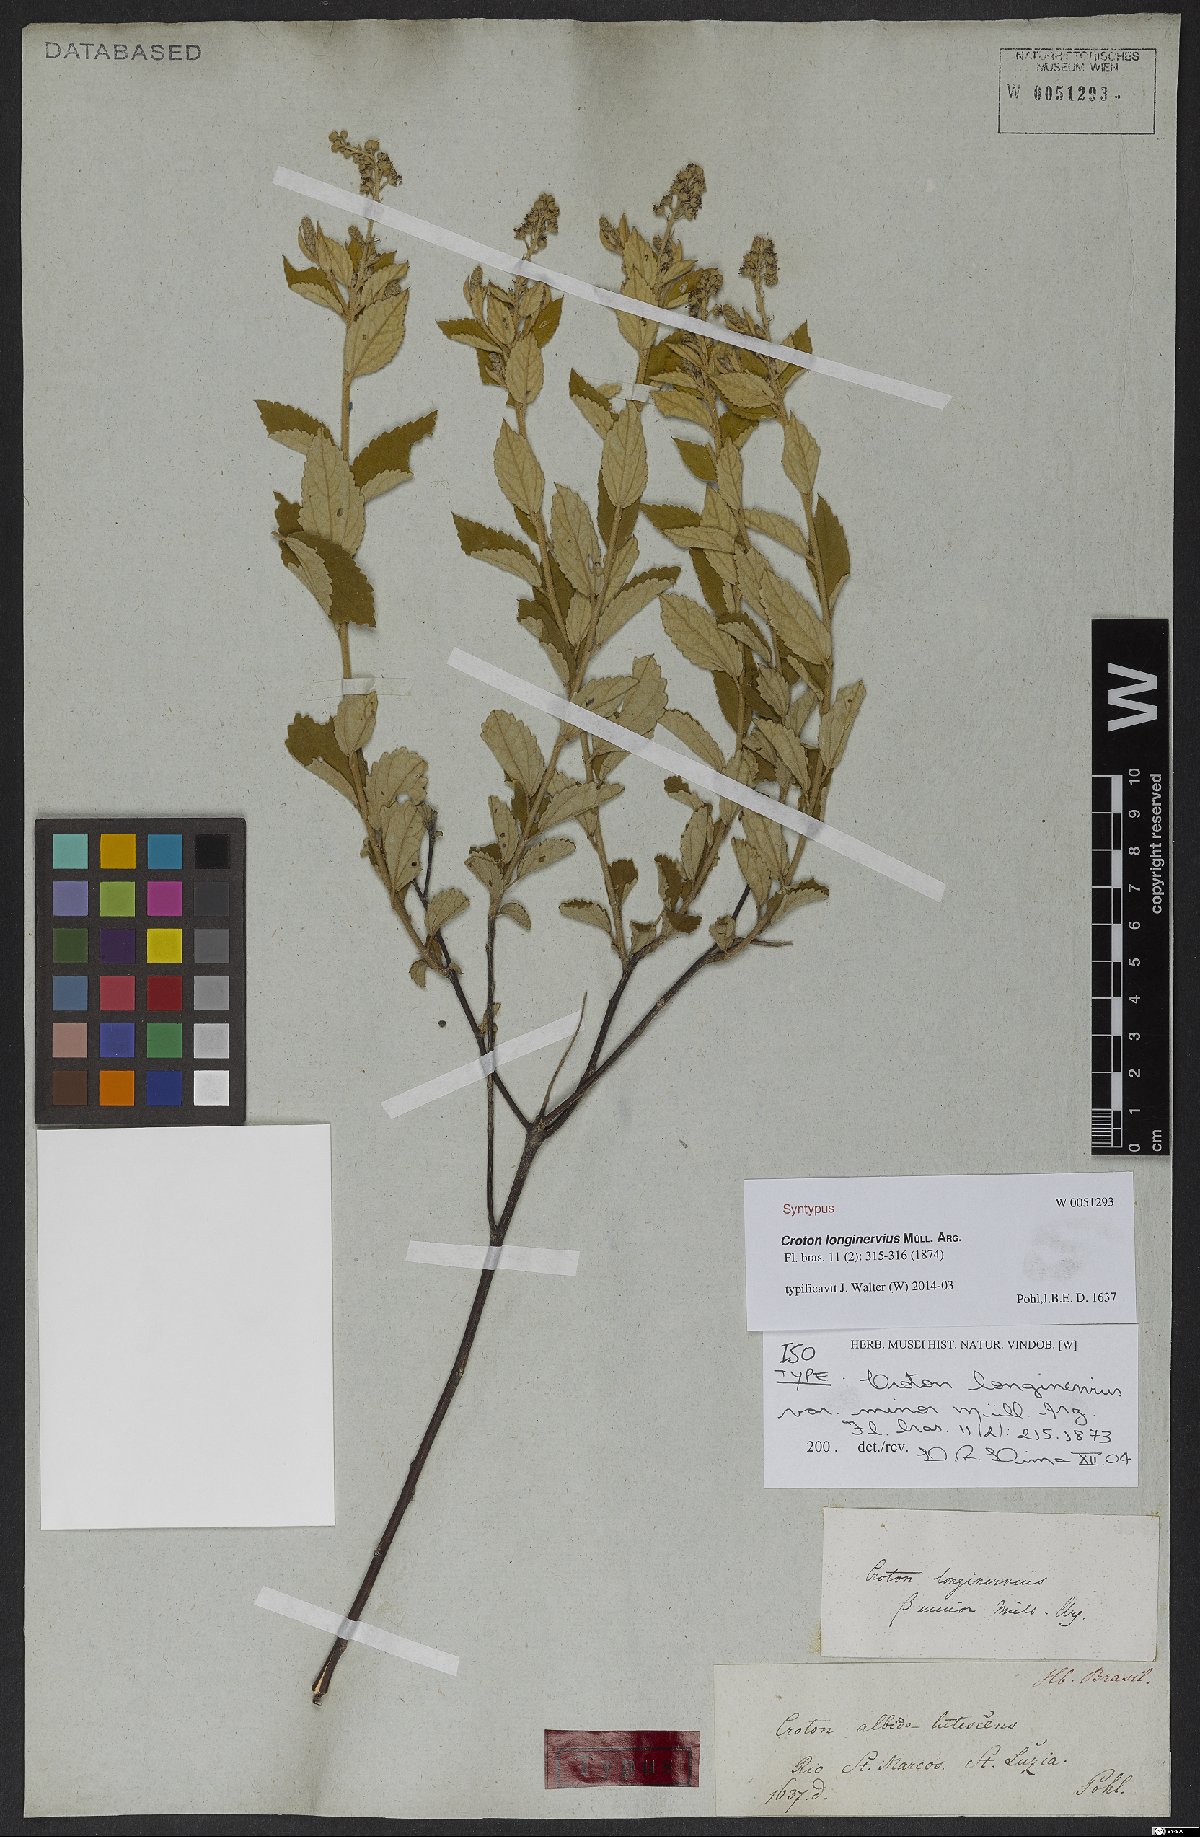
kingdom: Plantae
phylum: Tracheophyta
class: Magnoliopsida
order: Malpighiales
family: Euphorbiaceae
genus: Croton
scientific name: Croton abaitensis
